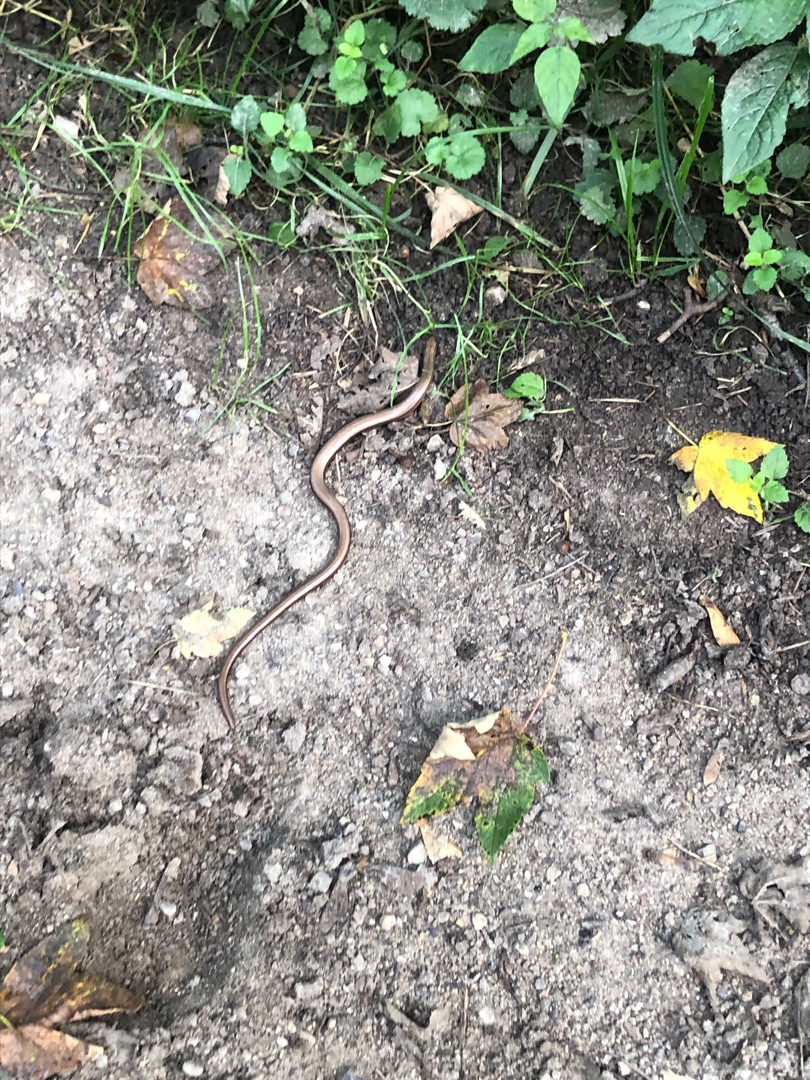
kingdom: Animalia
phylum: Chordata
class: Squamata
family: Anguidae
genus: Anguis
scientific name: Anguis fragilis
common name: Stålorm
